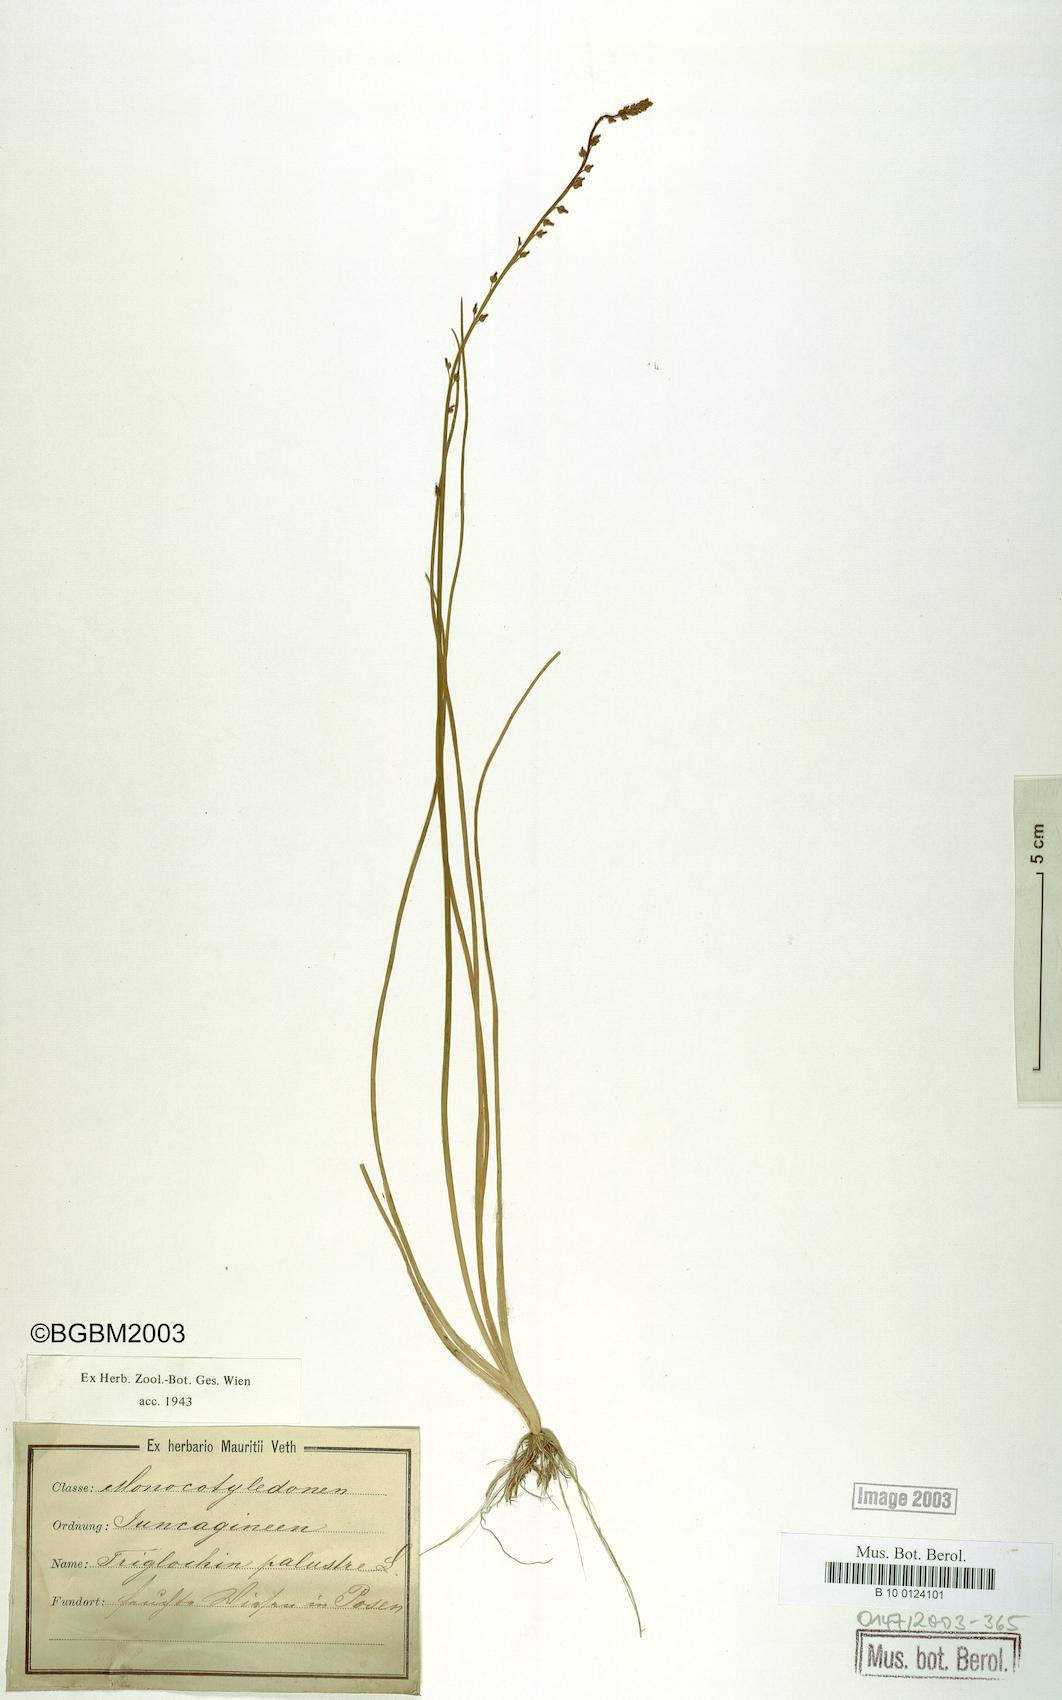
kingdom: Plantae
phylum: Tracheophyta
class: Liliopsida
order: Alismatales
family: Juncaginaceae
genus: Triglochin
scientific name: Triglochin palustris
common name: Marsh arrowgrass
